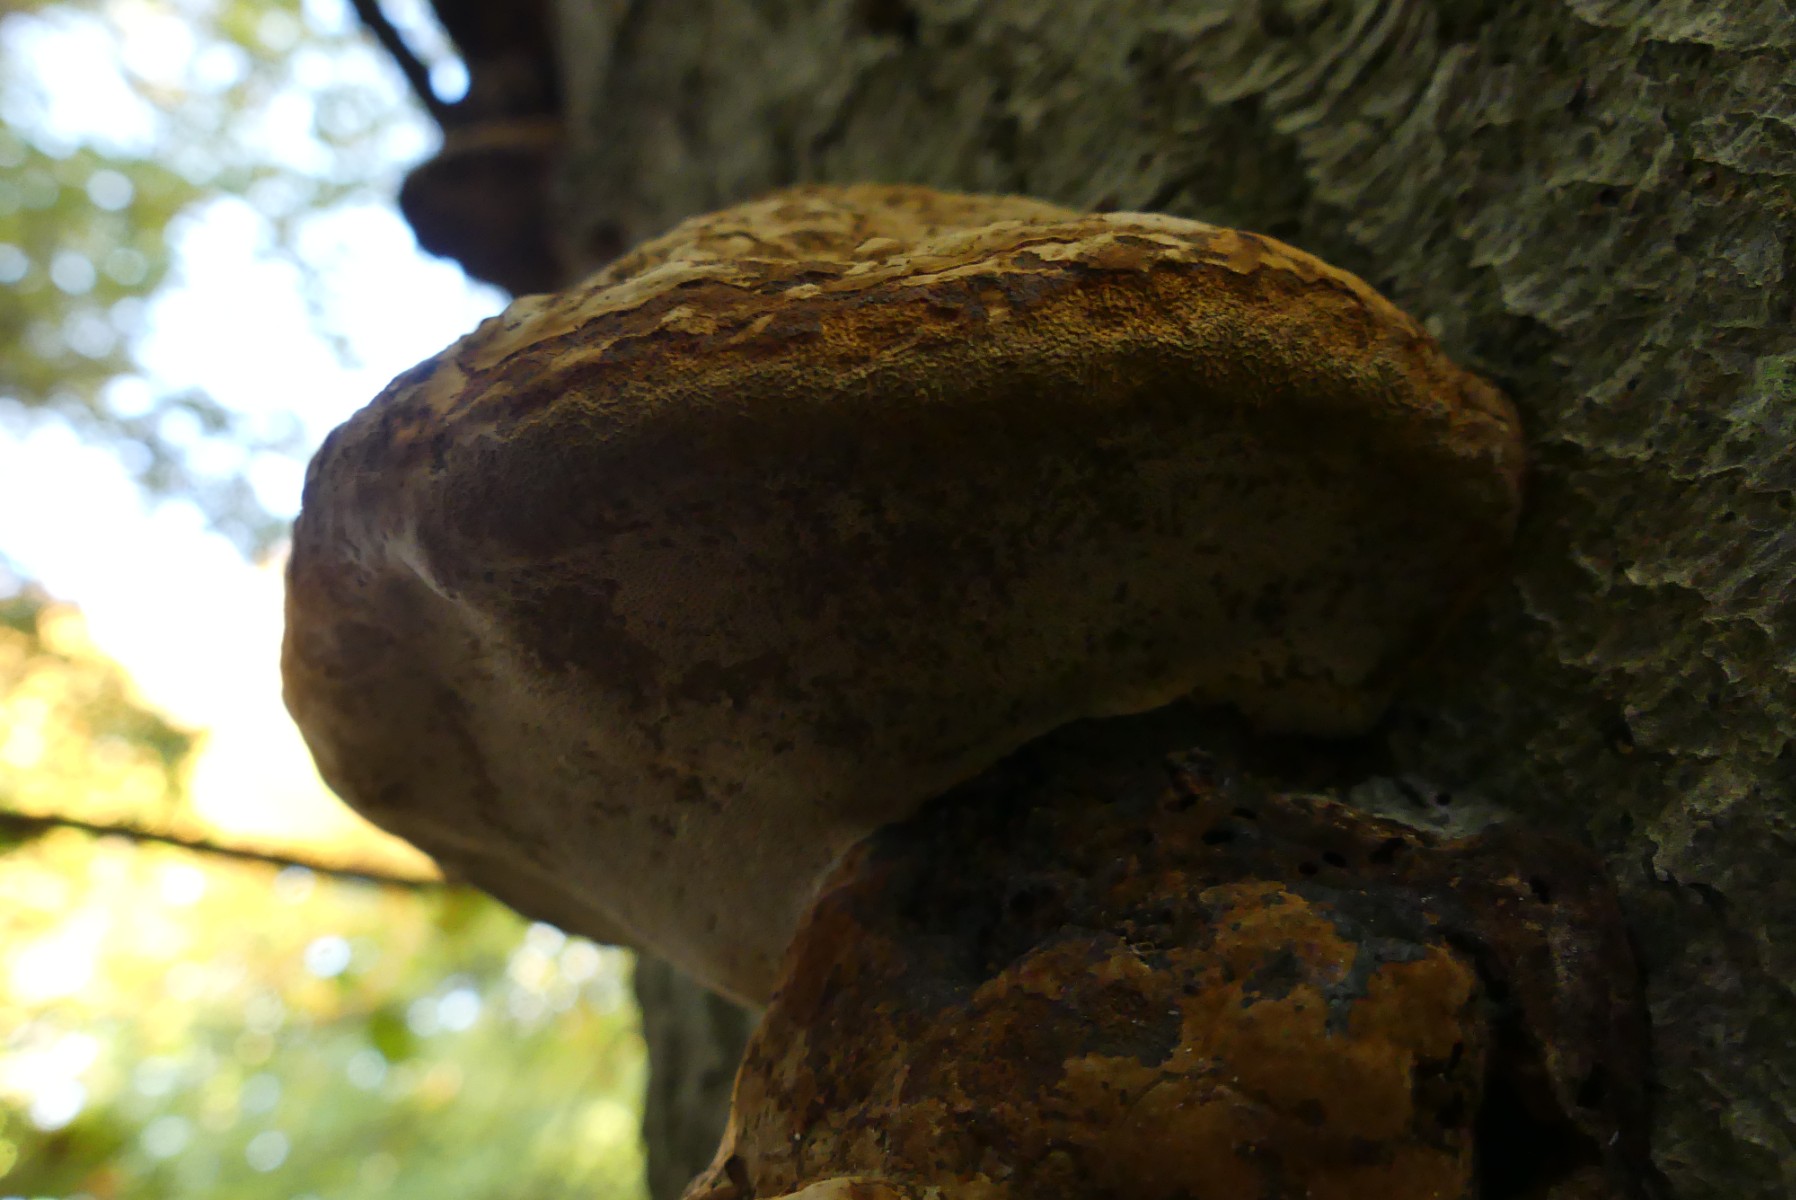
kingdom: Fungi
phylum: Basidiomycota
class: Agaricomycetes
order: Polyporales
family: Polyporaceae
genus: Fomes
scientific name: Fomes fomentarius
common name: tøndersvamp
